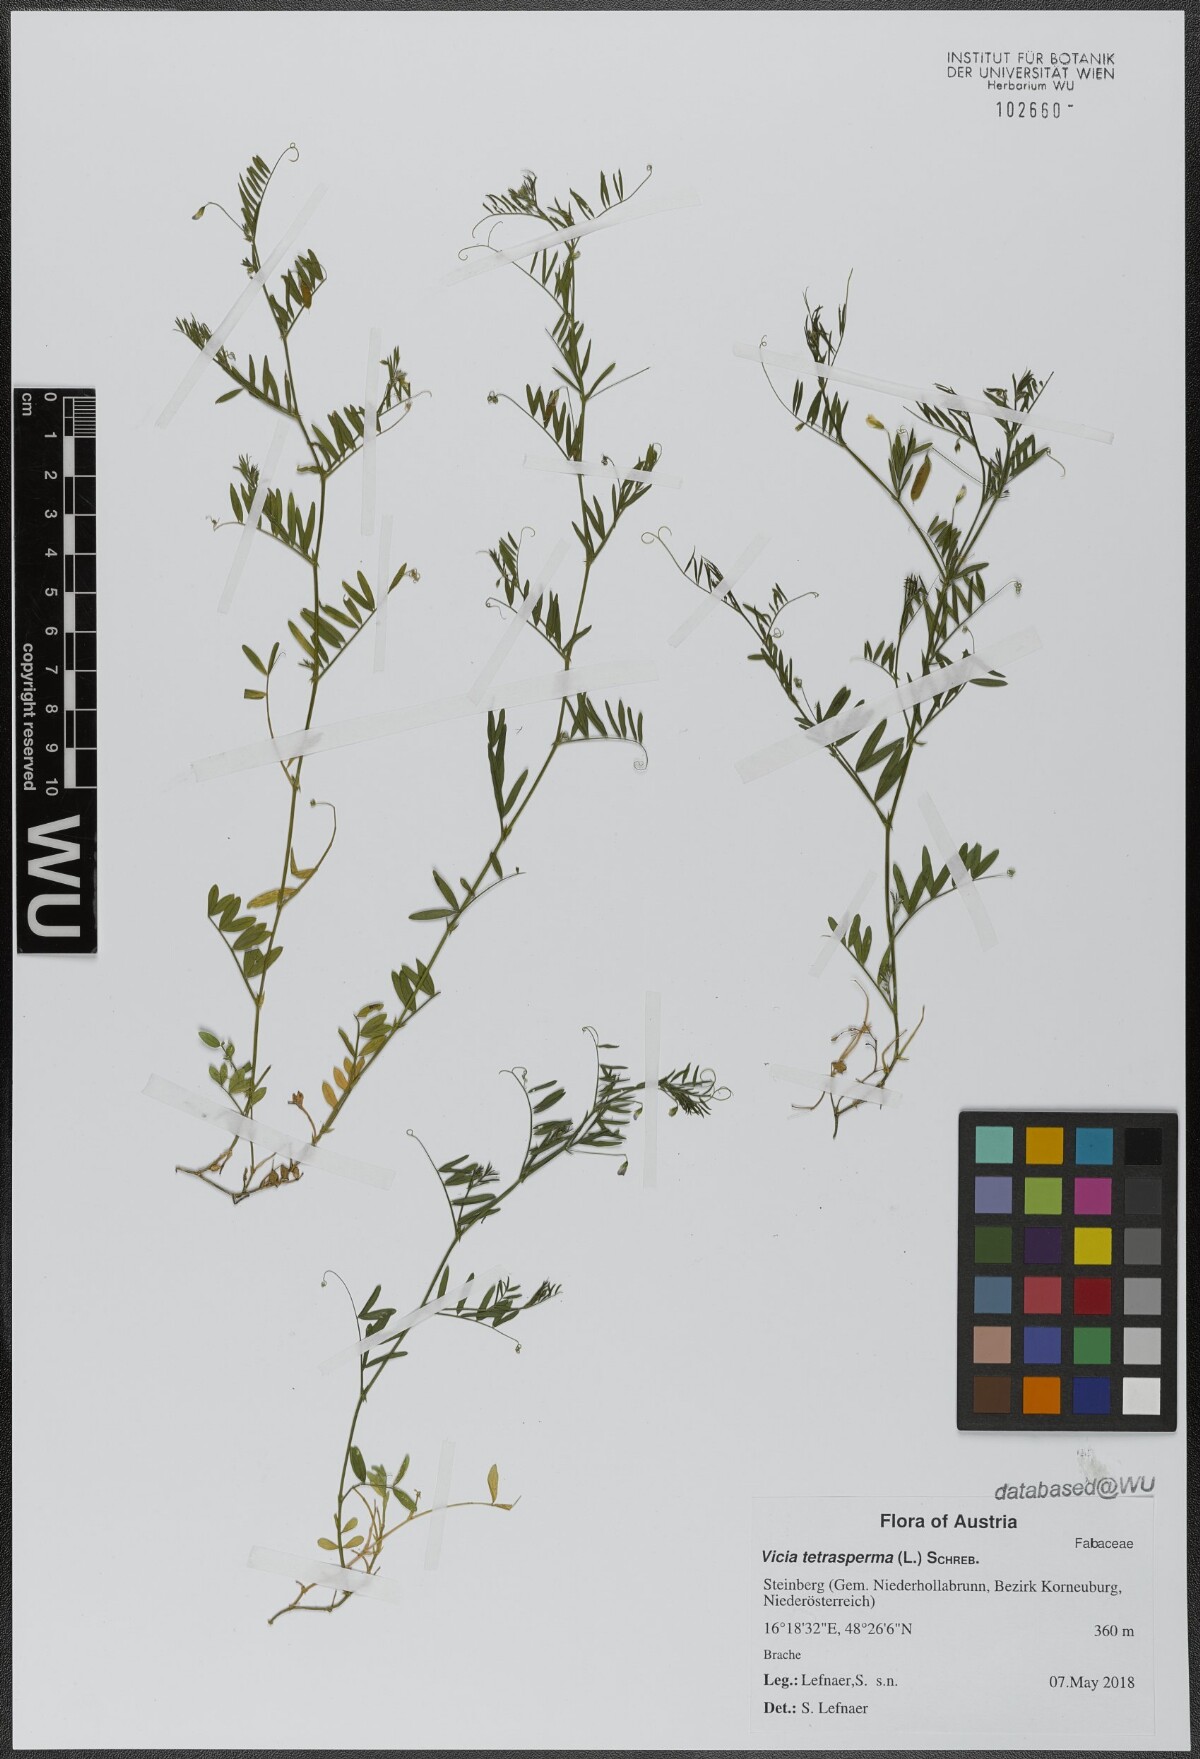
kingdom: Plantae
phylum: Tracheophyta
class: Magnoliopsida
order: Fabales
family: Fabaceae
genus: Vicia
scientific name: Vicia tetrasperma
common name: Smooth tare
